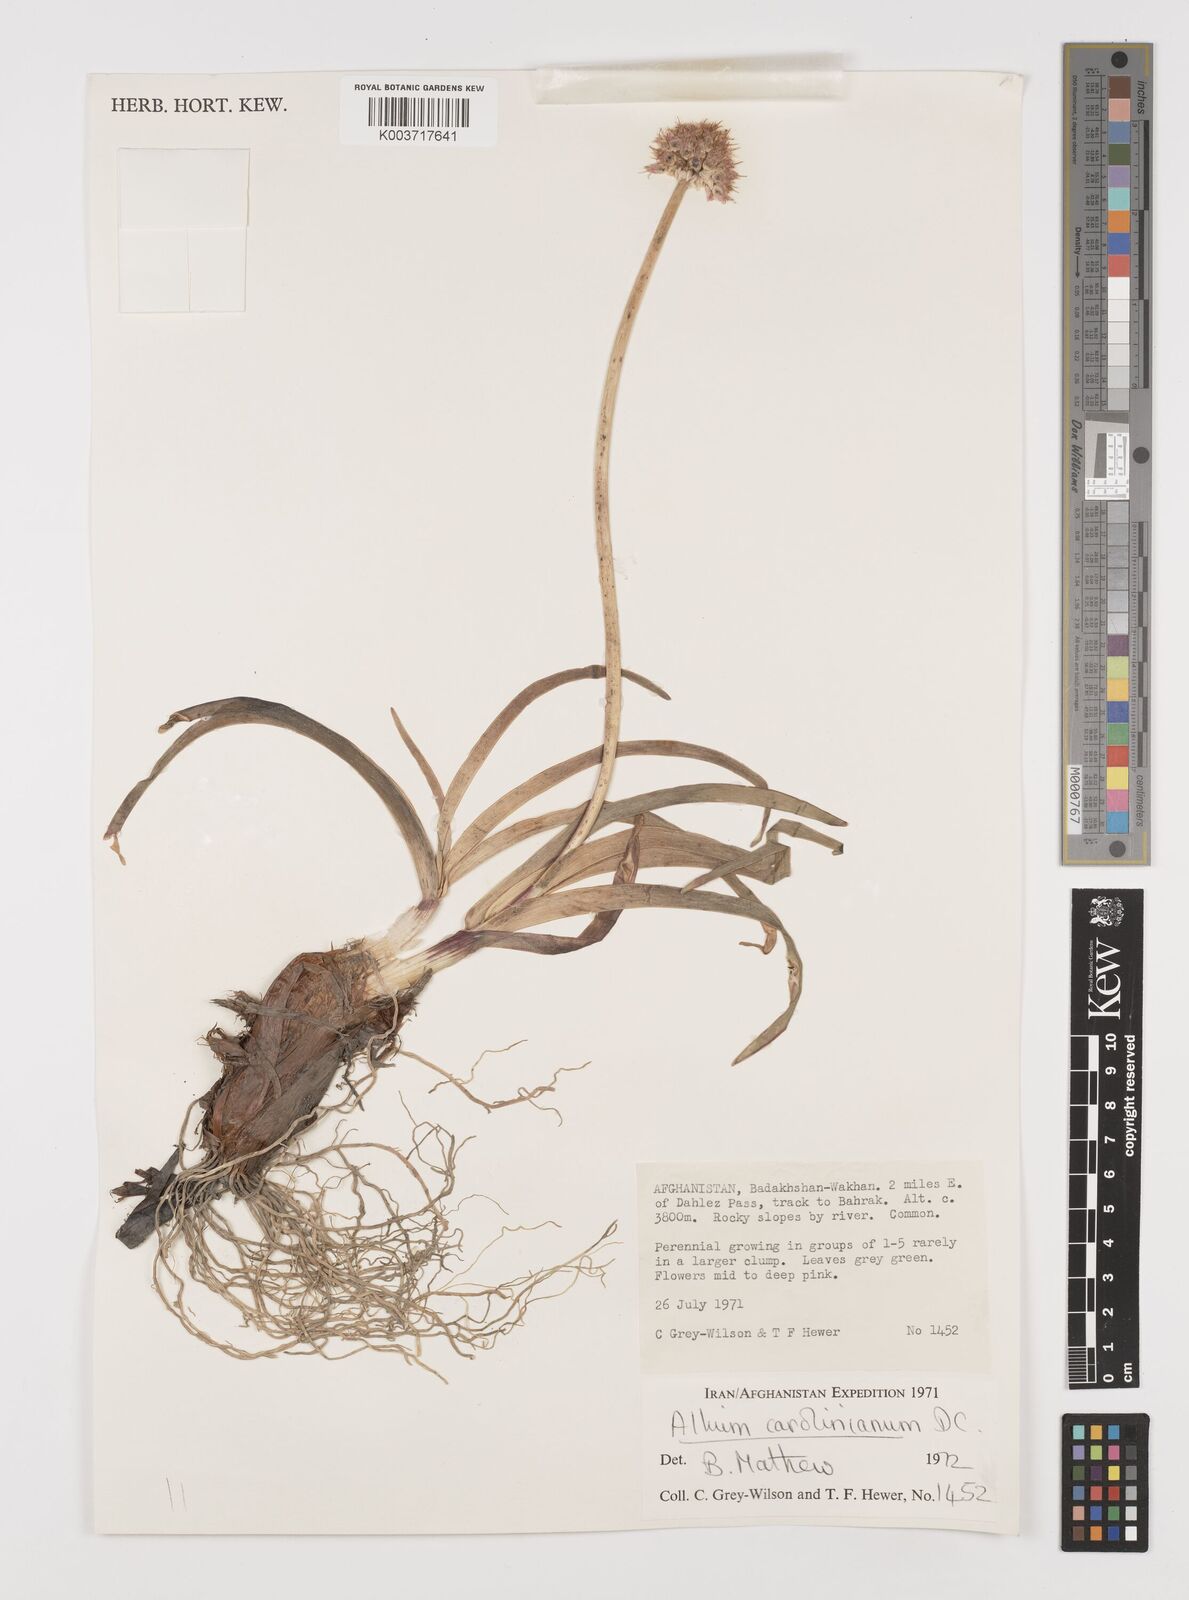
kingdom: Plantae
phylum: Tracheophyta
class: Liliopsida
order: Asparagales
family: Amaryllidaceae
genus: Allium
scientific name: Allium carolinianum
